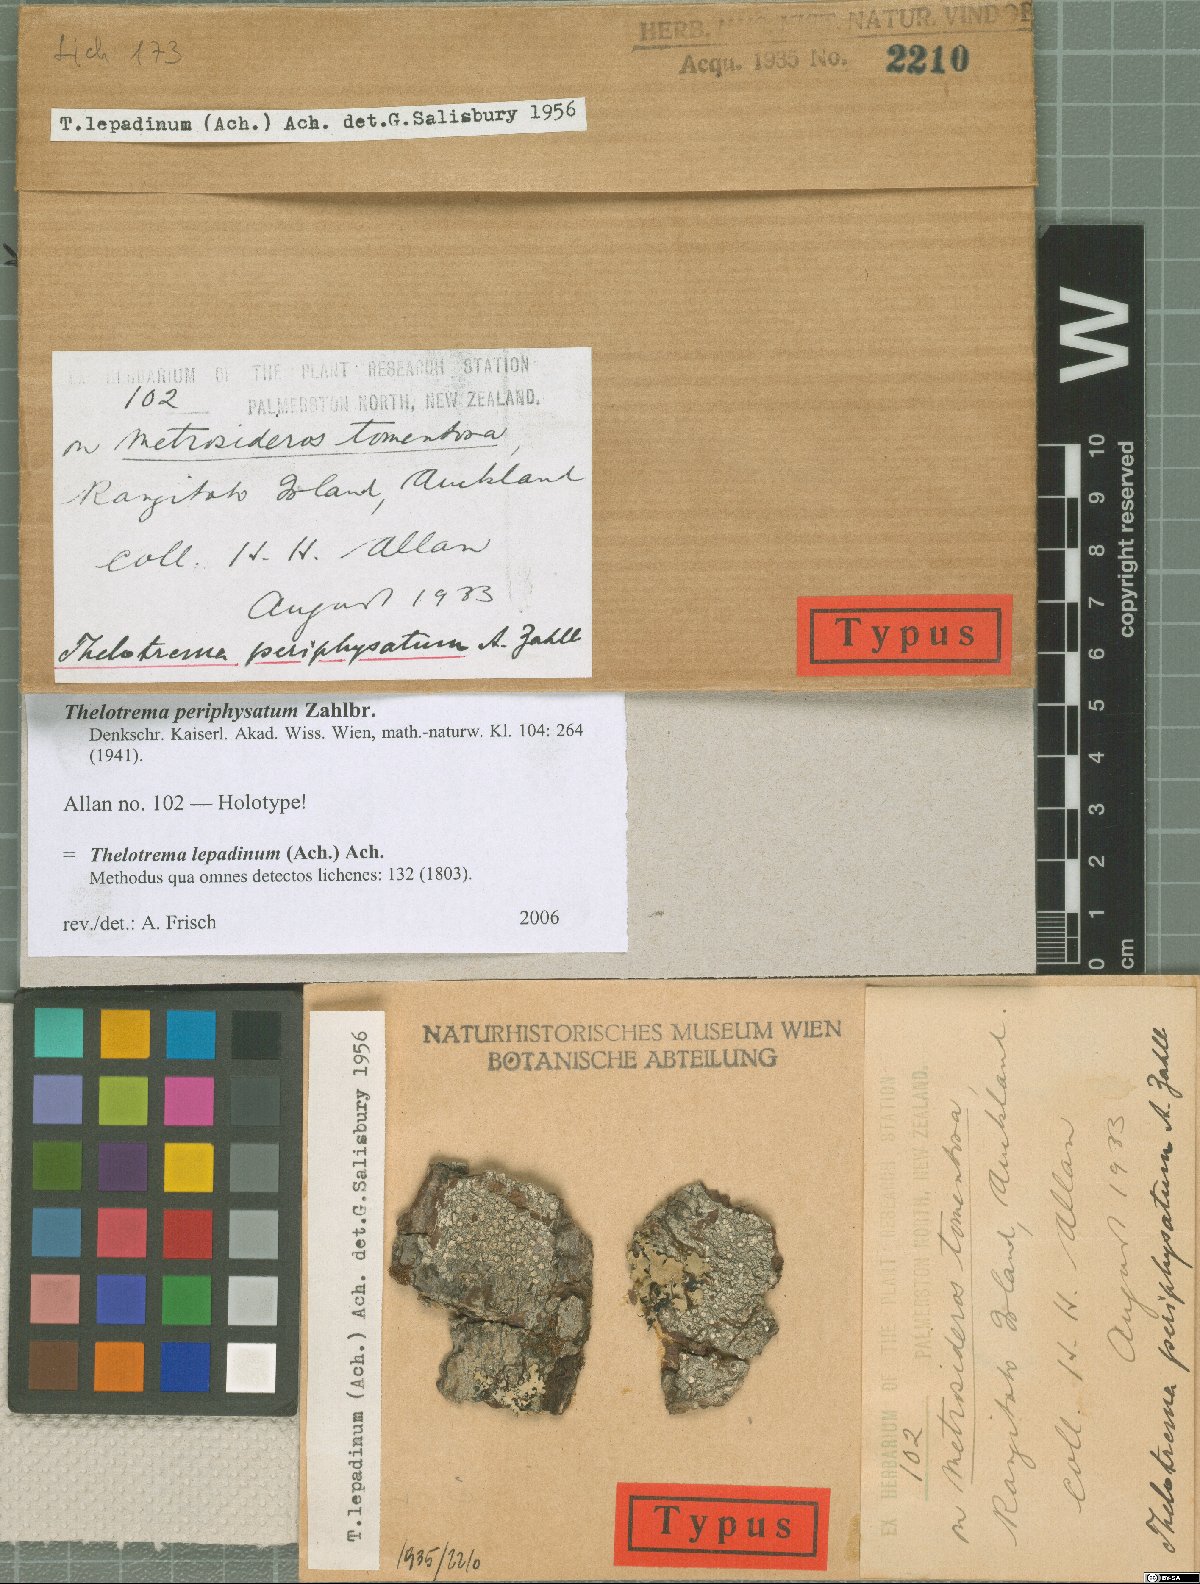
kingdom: Fungi
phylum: Ascomycota
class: Lecanoromycetes
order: Ostropales
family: Graphidaceae
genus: Thelotrema
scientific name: Thelotrema
